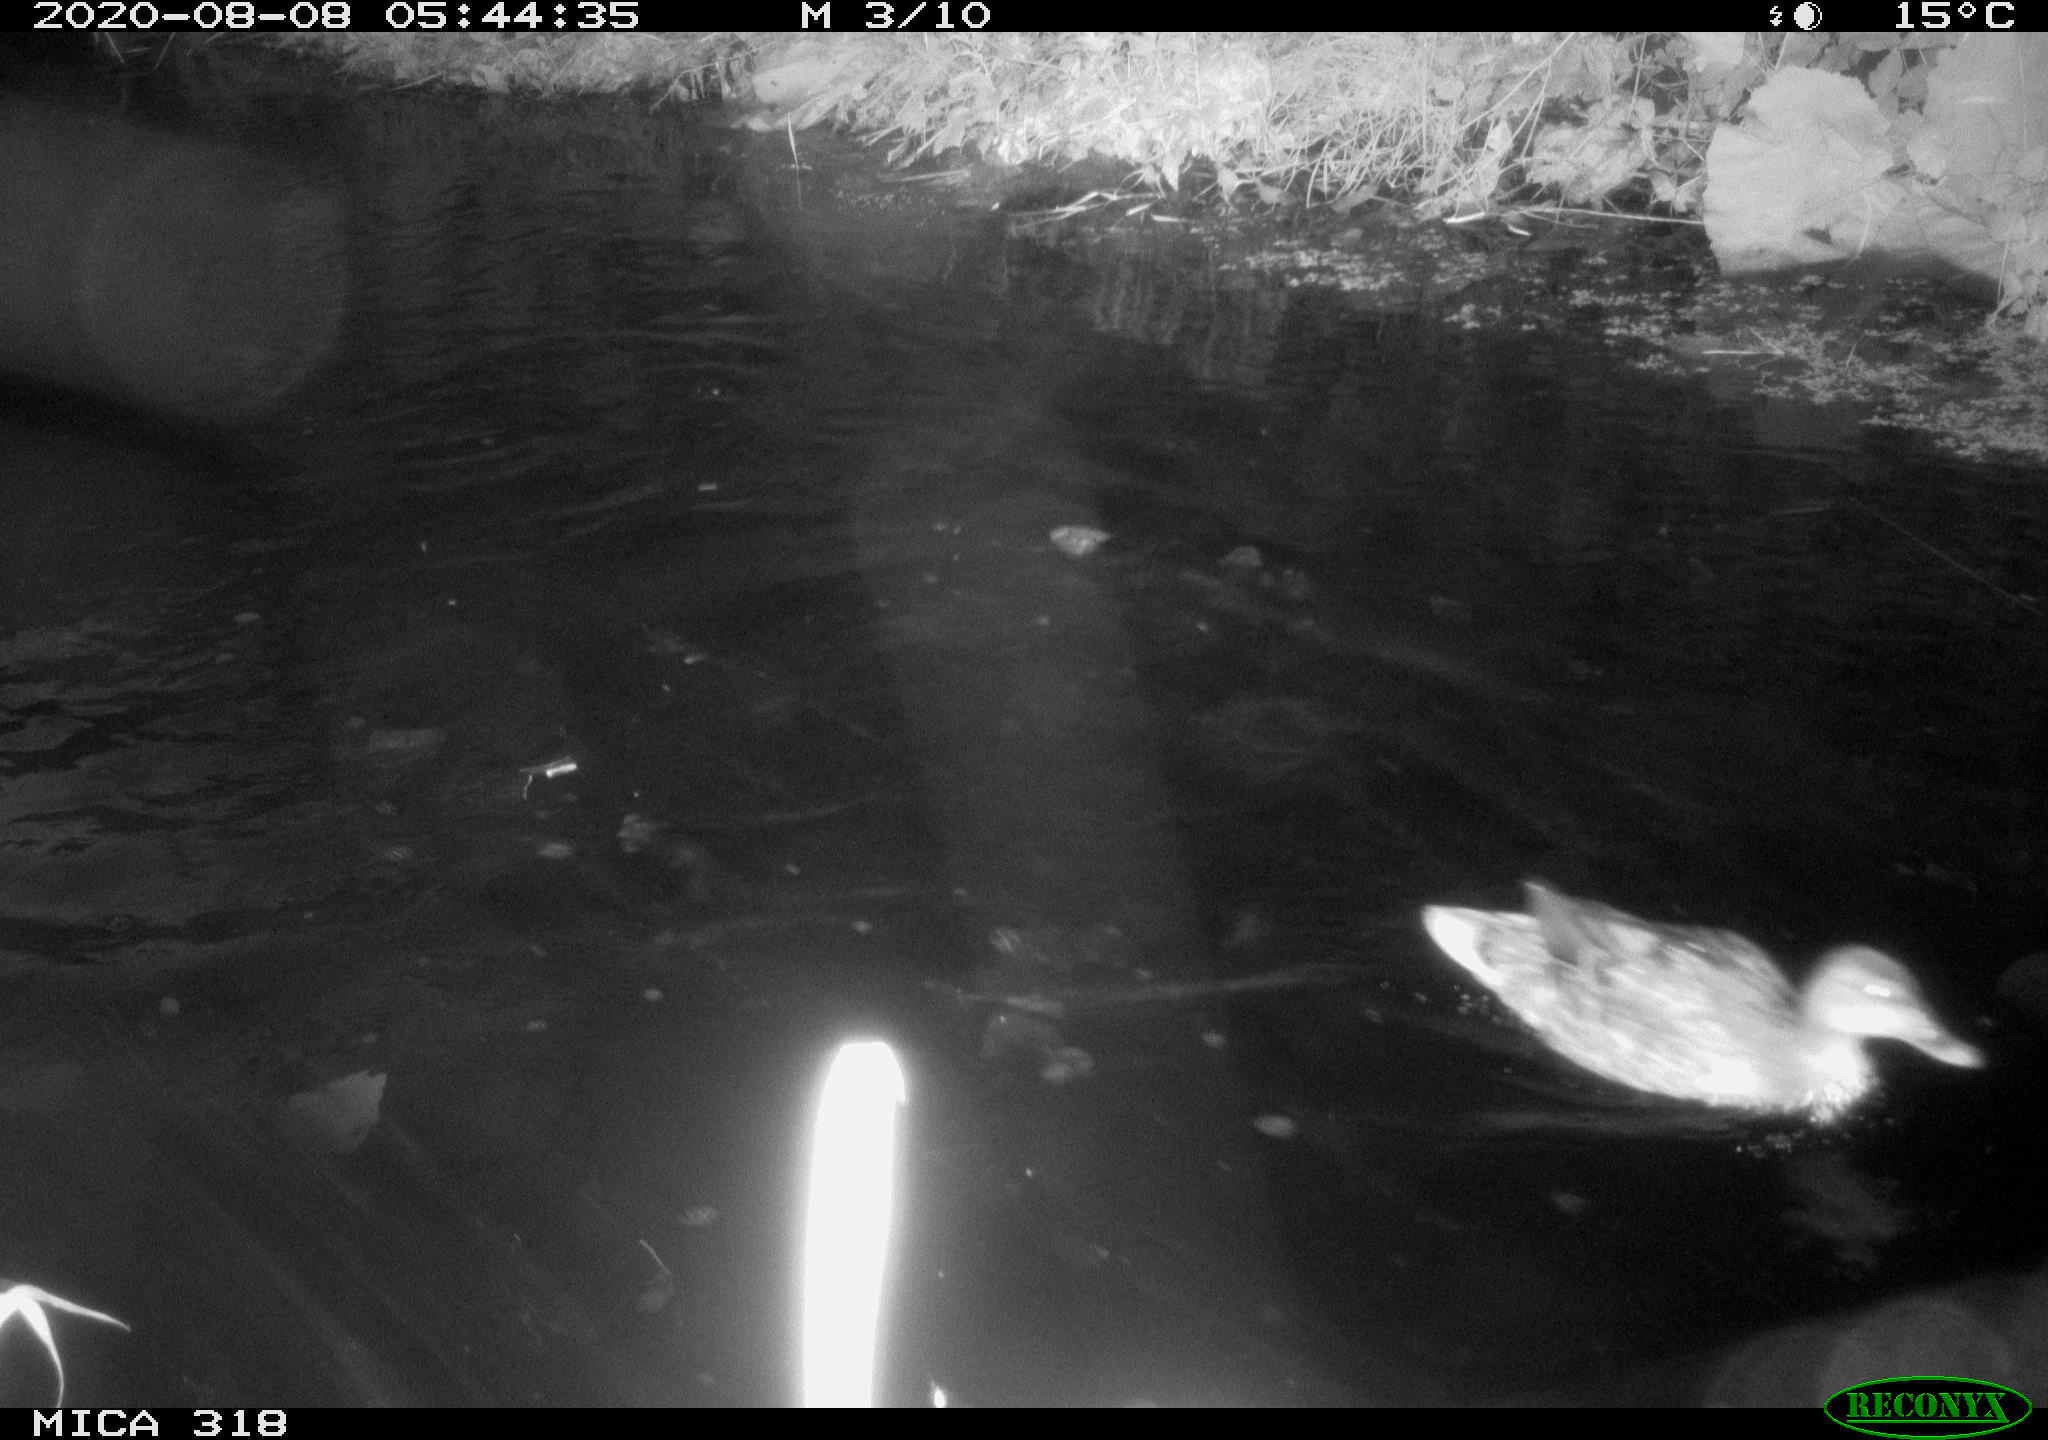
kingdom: Animalia
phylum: Chordata
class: Aves
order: Anseriformes
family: Anatidae
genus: Anas
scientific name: Anas platyrhynchos
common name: Mallard
